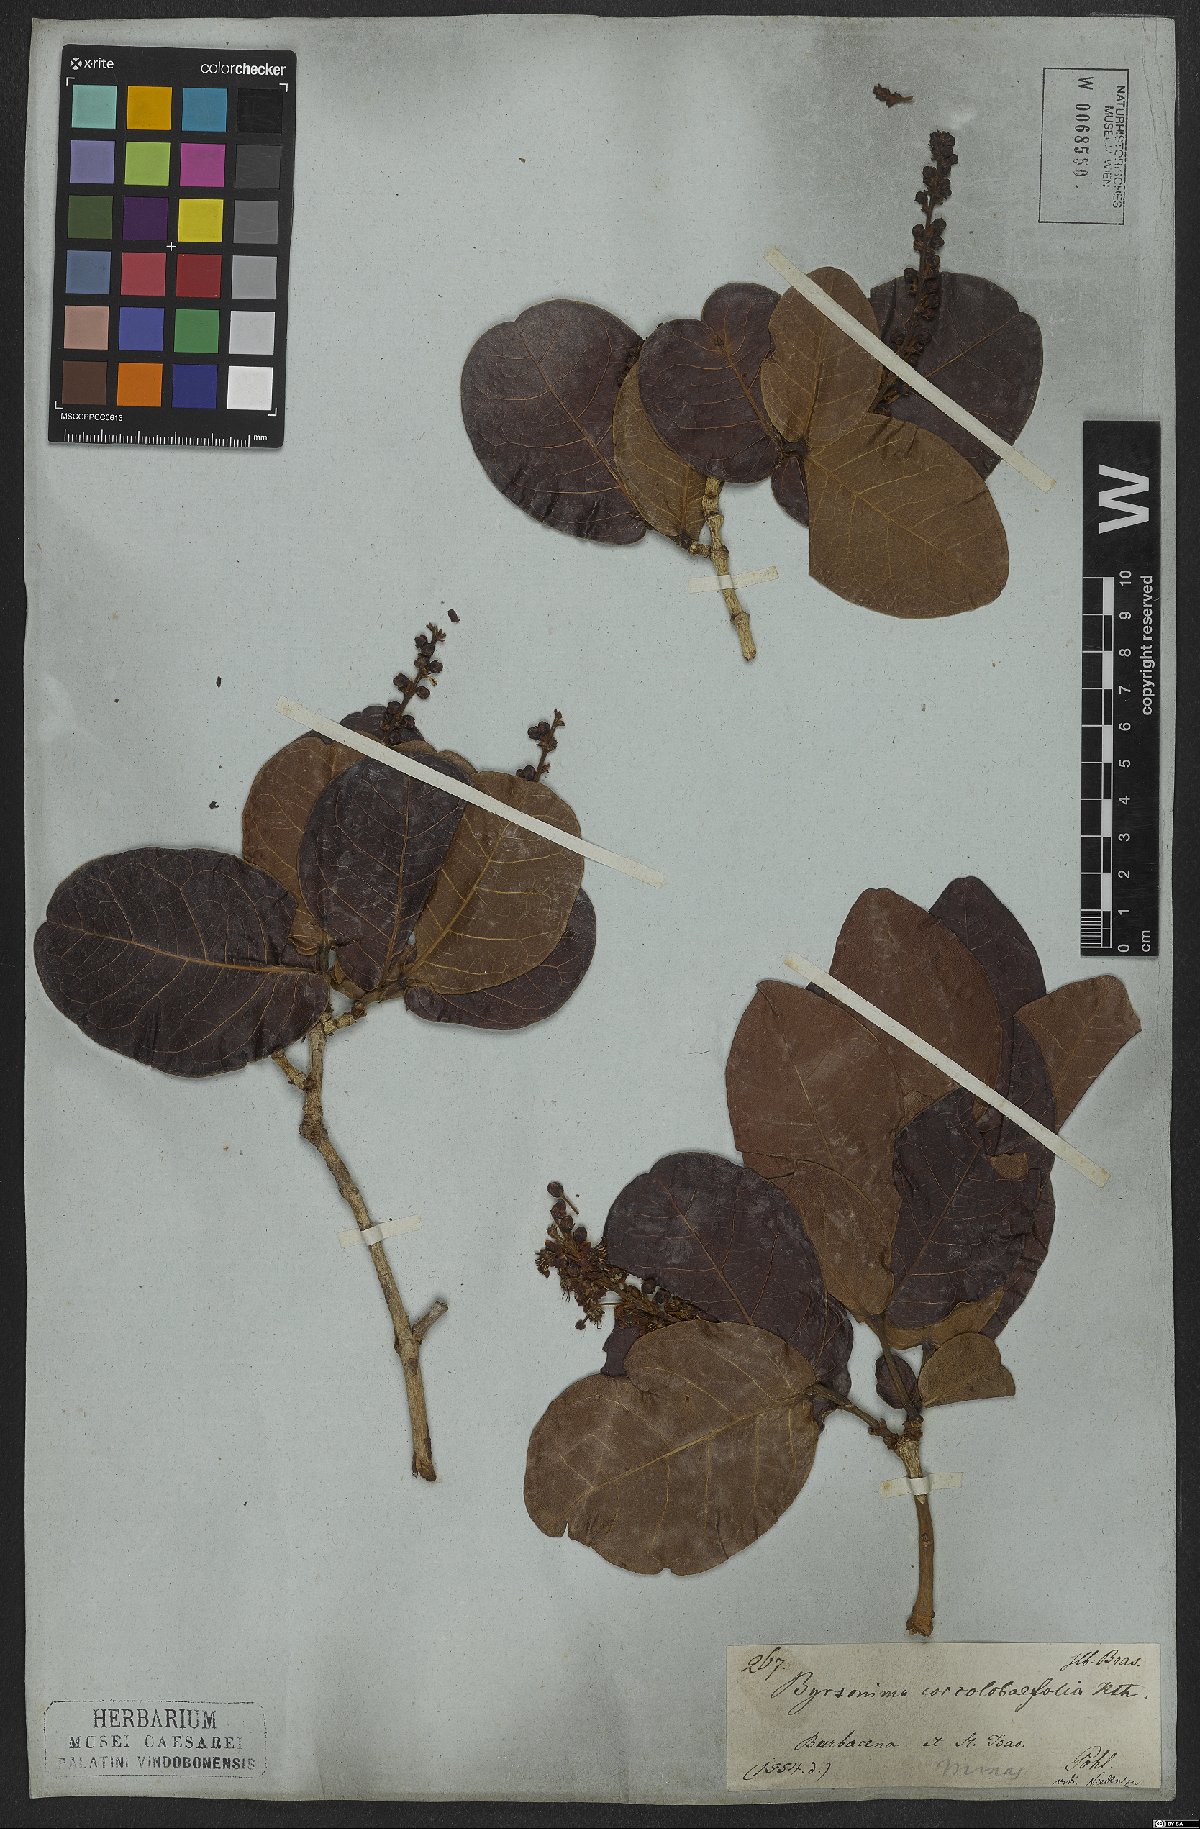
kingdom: Plantae
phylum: Tracheophyta
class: Magnoliopsida
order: Malpighiales
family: Malpighiaceae
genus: Byrsonima
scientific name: Byrsonima coccolobifolia
